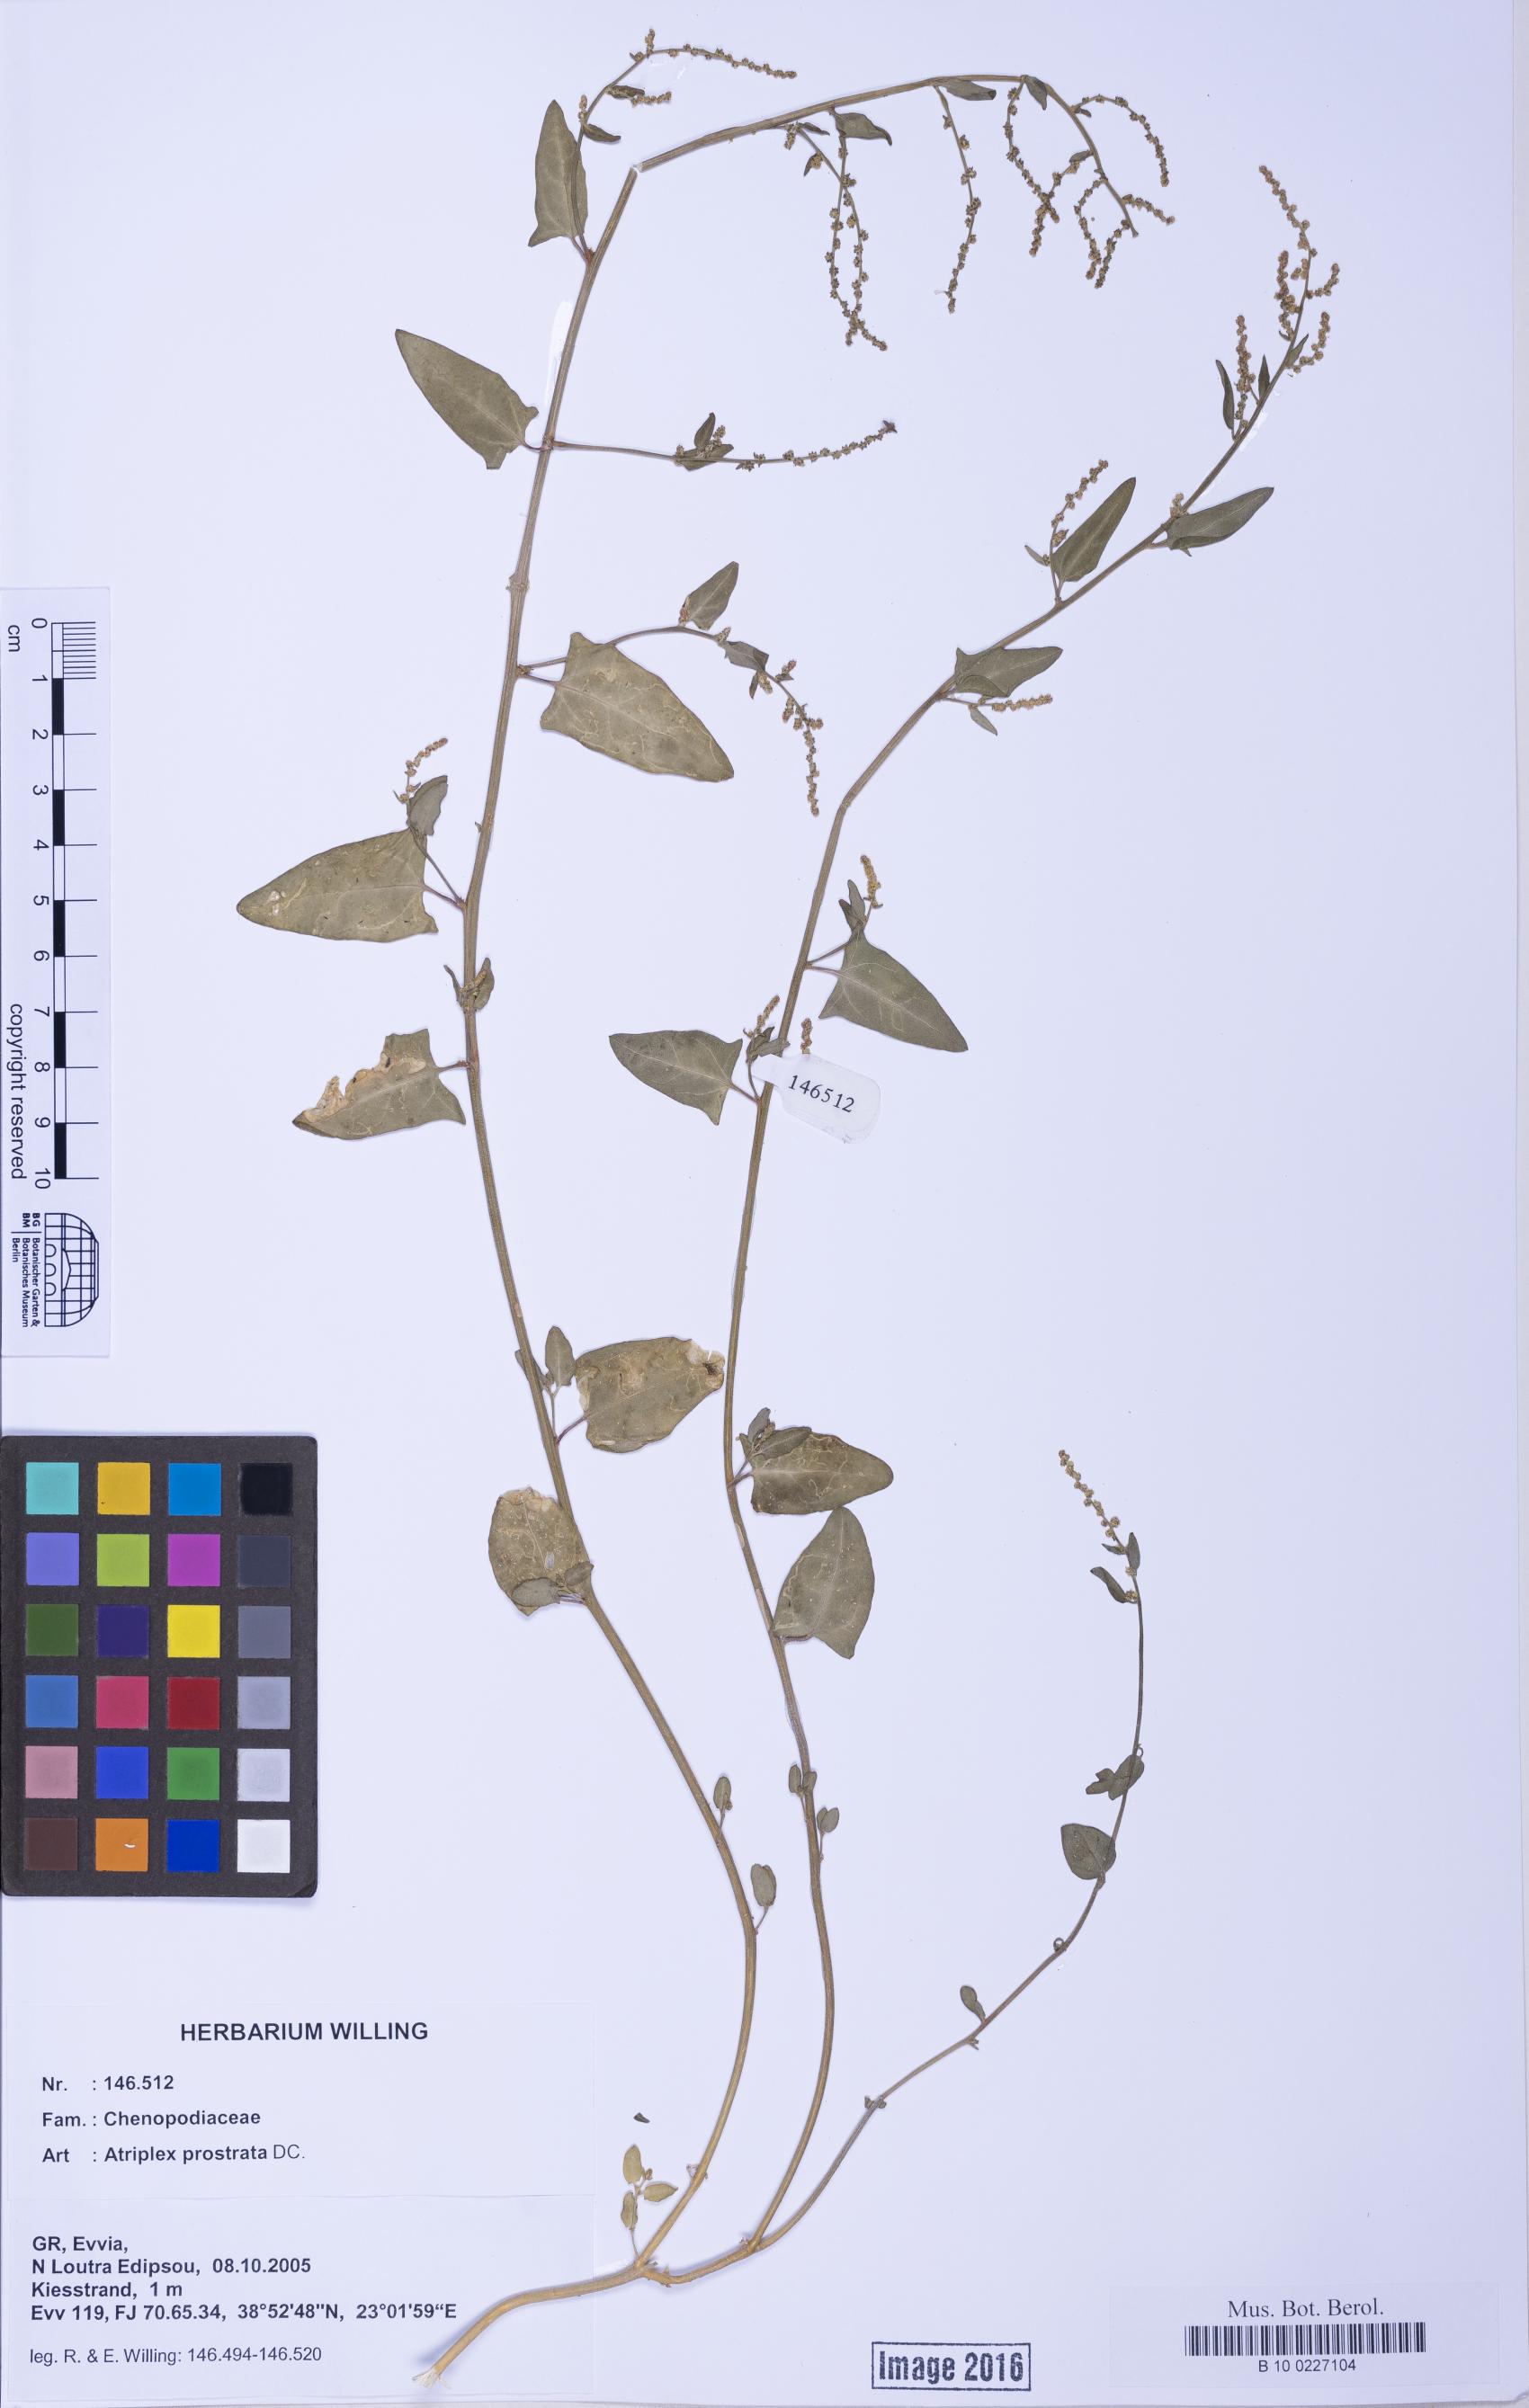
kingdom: Plantae
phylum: Tracheophyta
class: Magnoliopsida
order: Caryophyllales
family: Amaranthaceae
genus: Atriplex
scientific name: Atriplex prostrata
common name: Spear-leaved orache
